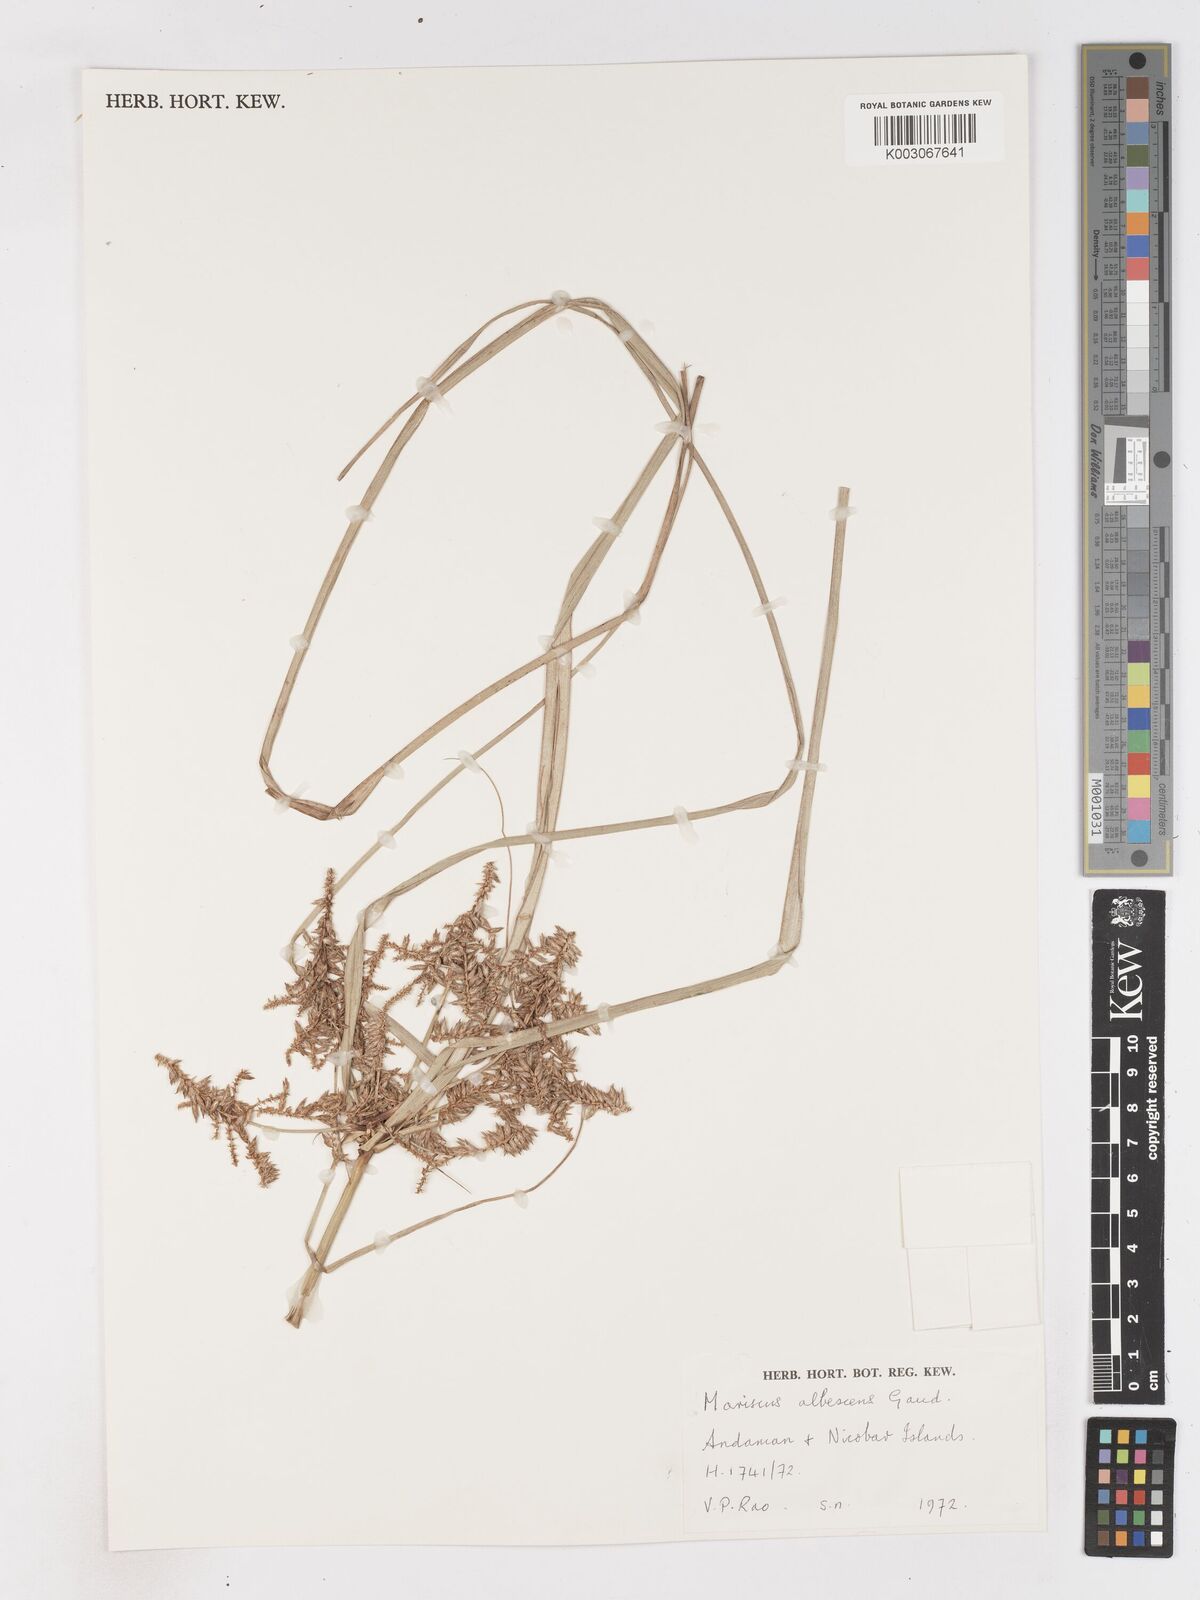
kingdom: Plantae
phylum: Tracheophyta
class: Liliopsida
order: Poales
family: Cyperaceae
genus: Cyperus
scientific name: Cyperus javanicus
